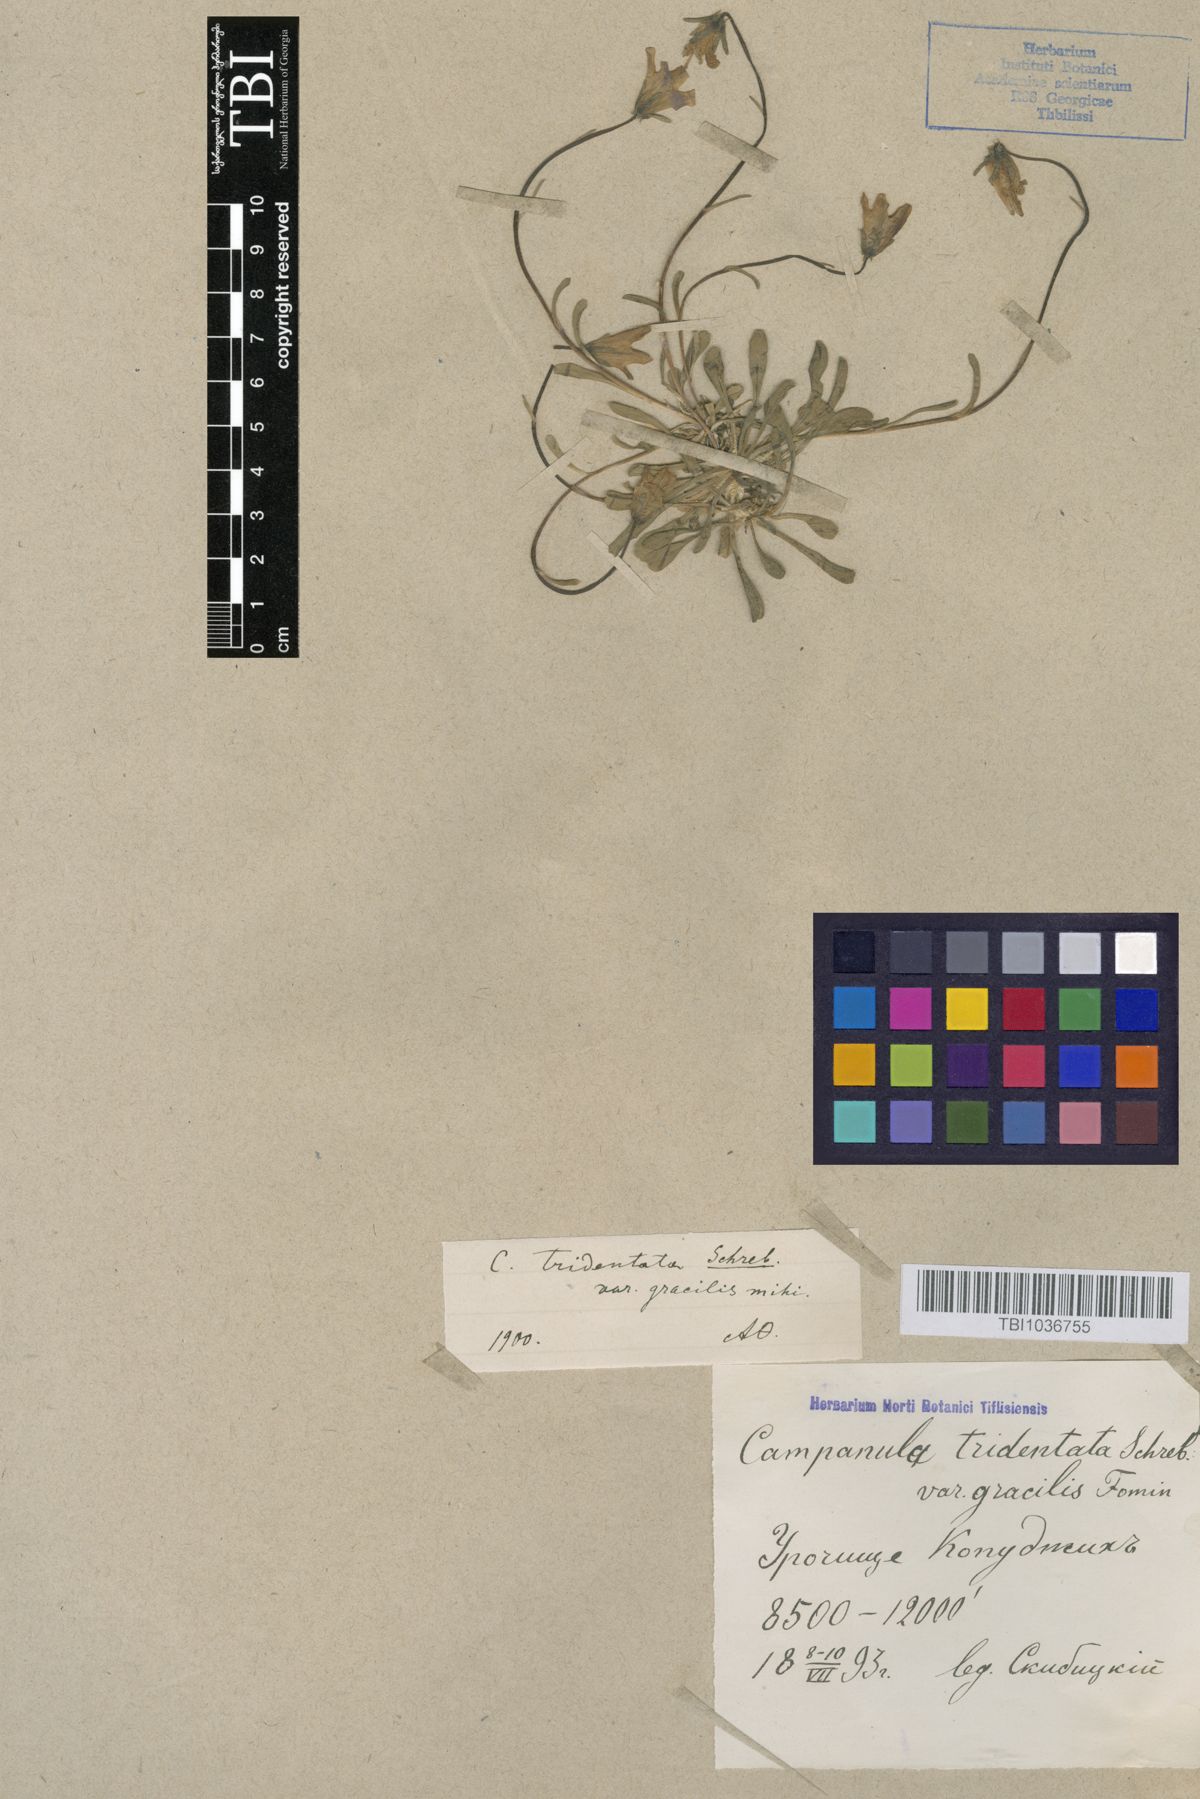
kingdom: Plantae
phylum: Tracheophyta
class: Magnoliopsida
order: Asterales
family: Campanulaceae
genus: Campanula
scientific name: Campanula tridentata
